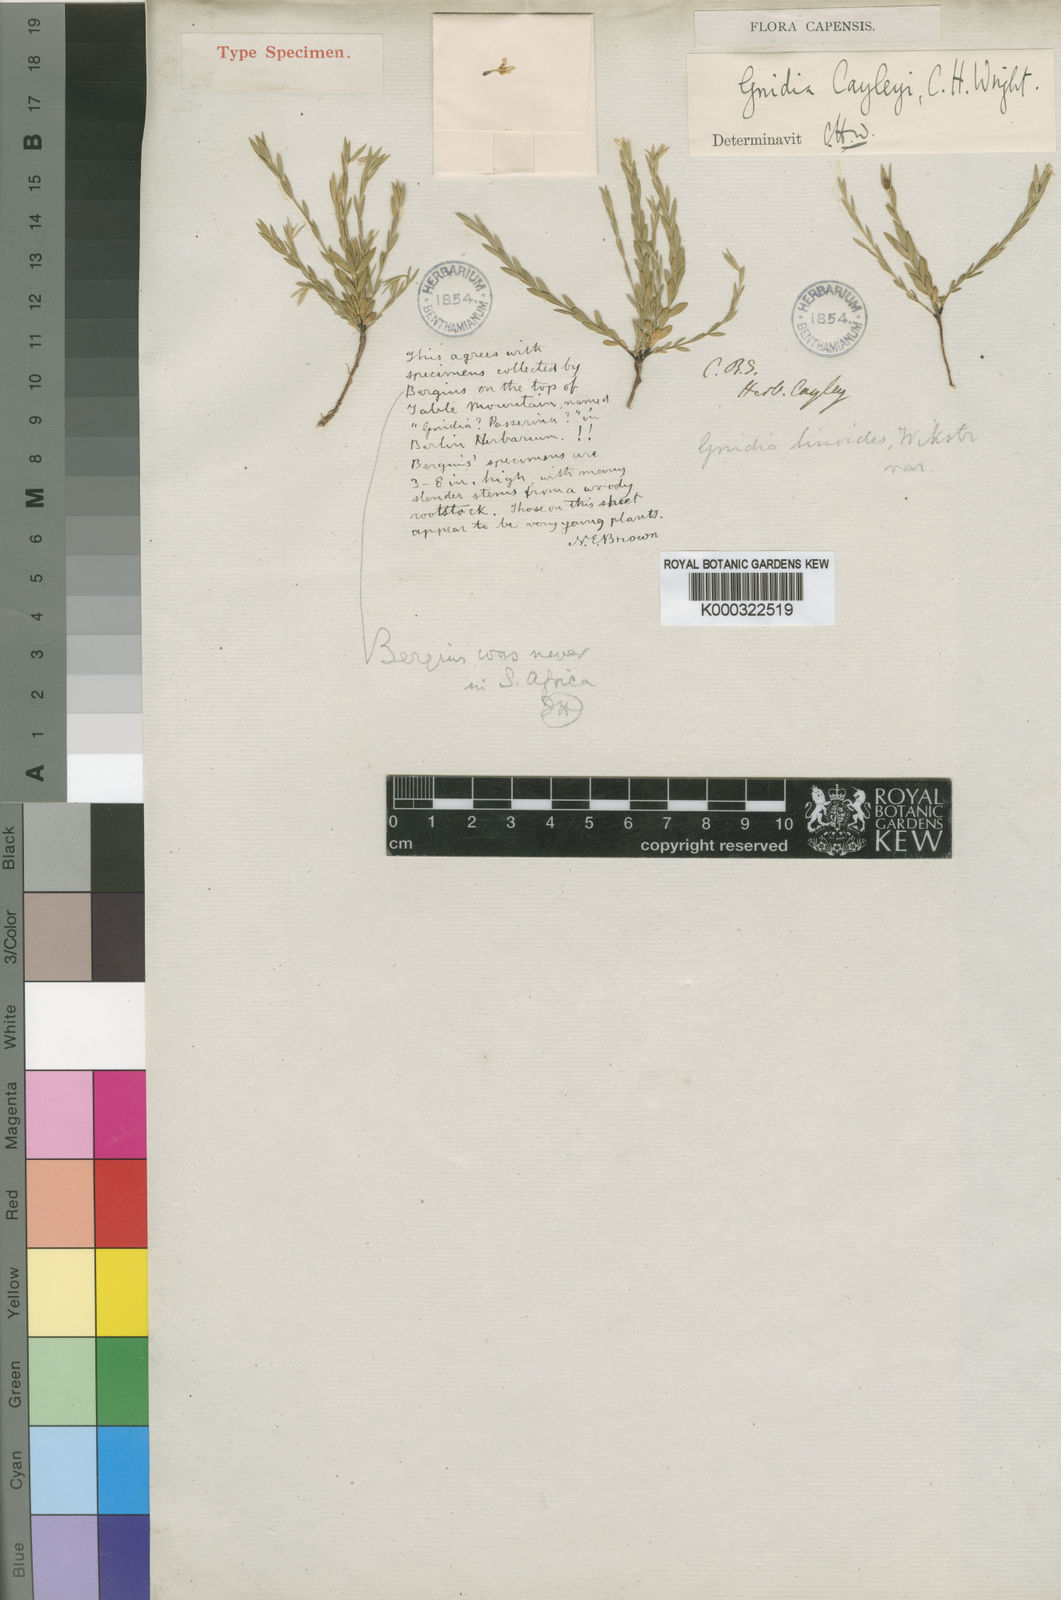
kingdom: Plantae
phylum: Tracheophyta
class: Magnoliopsida
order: Malvales
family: Thymelaeaceae
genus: Gnidia
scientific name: Gnidia linoides
